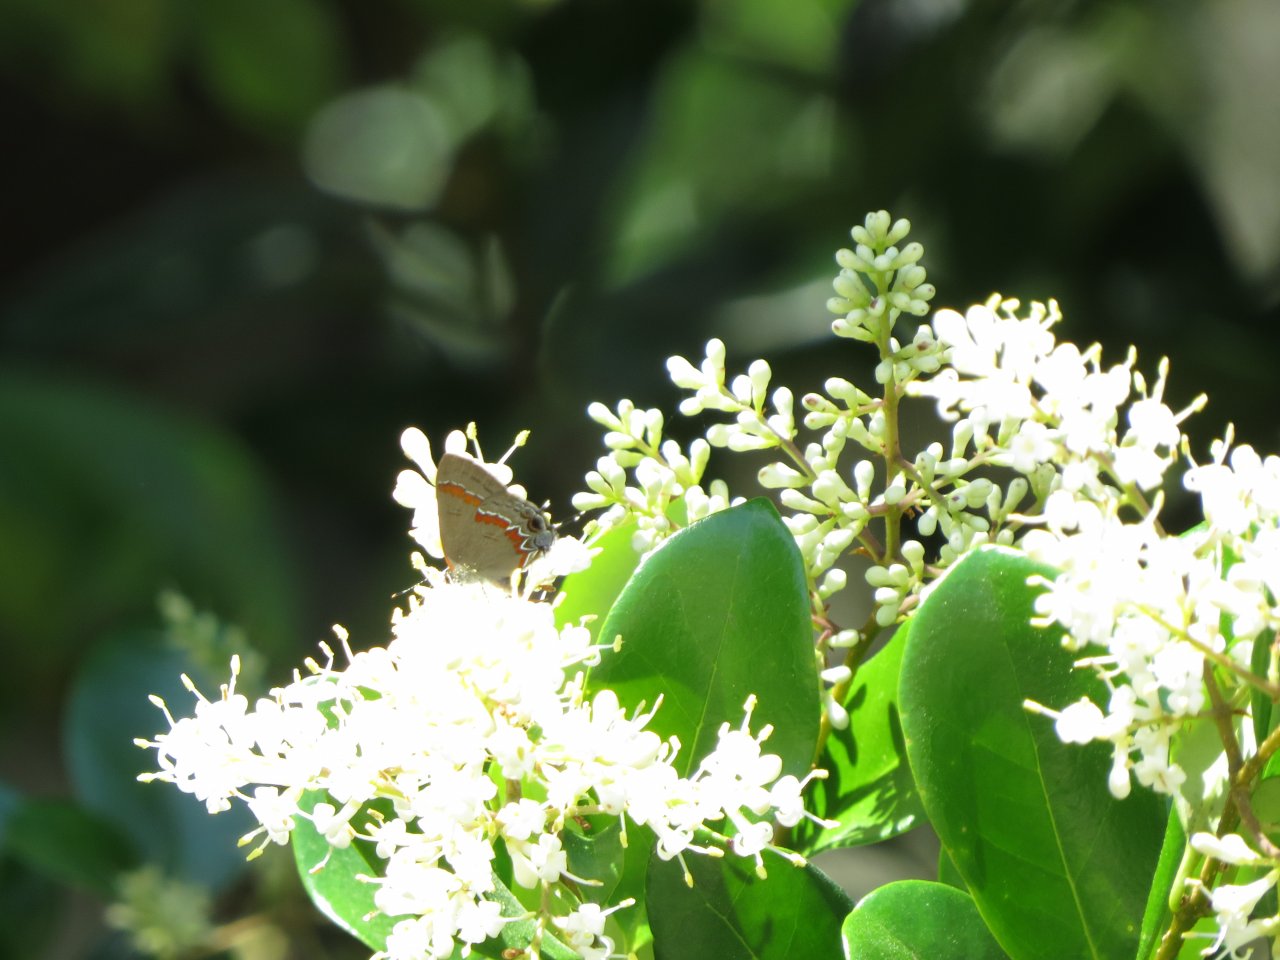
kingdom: Animalia
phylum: Arthropoda
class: Insecta
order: Lepidoptera
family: Lycaenidae
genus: Calycopis
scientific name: Calycopis cecrops
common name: Red-banded Hairstreak
